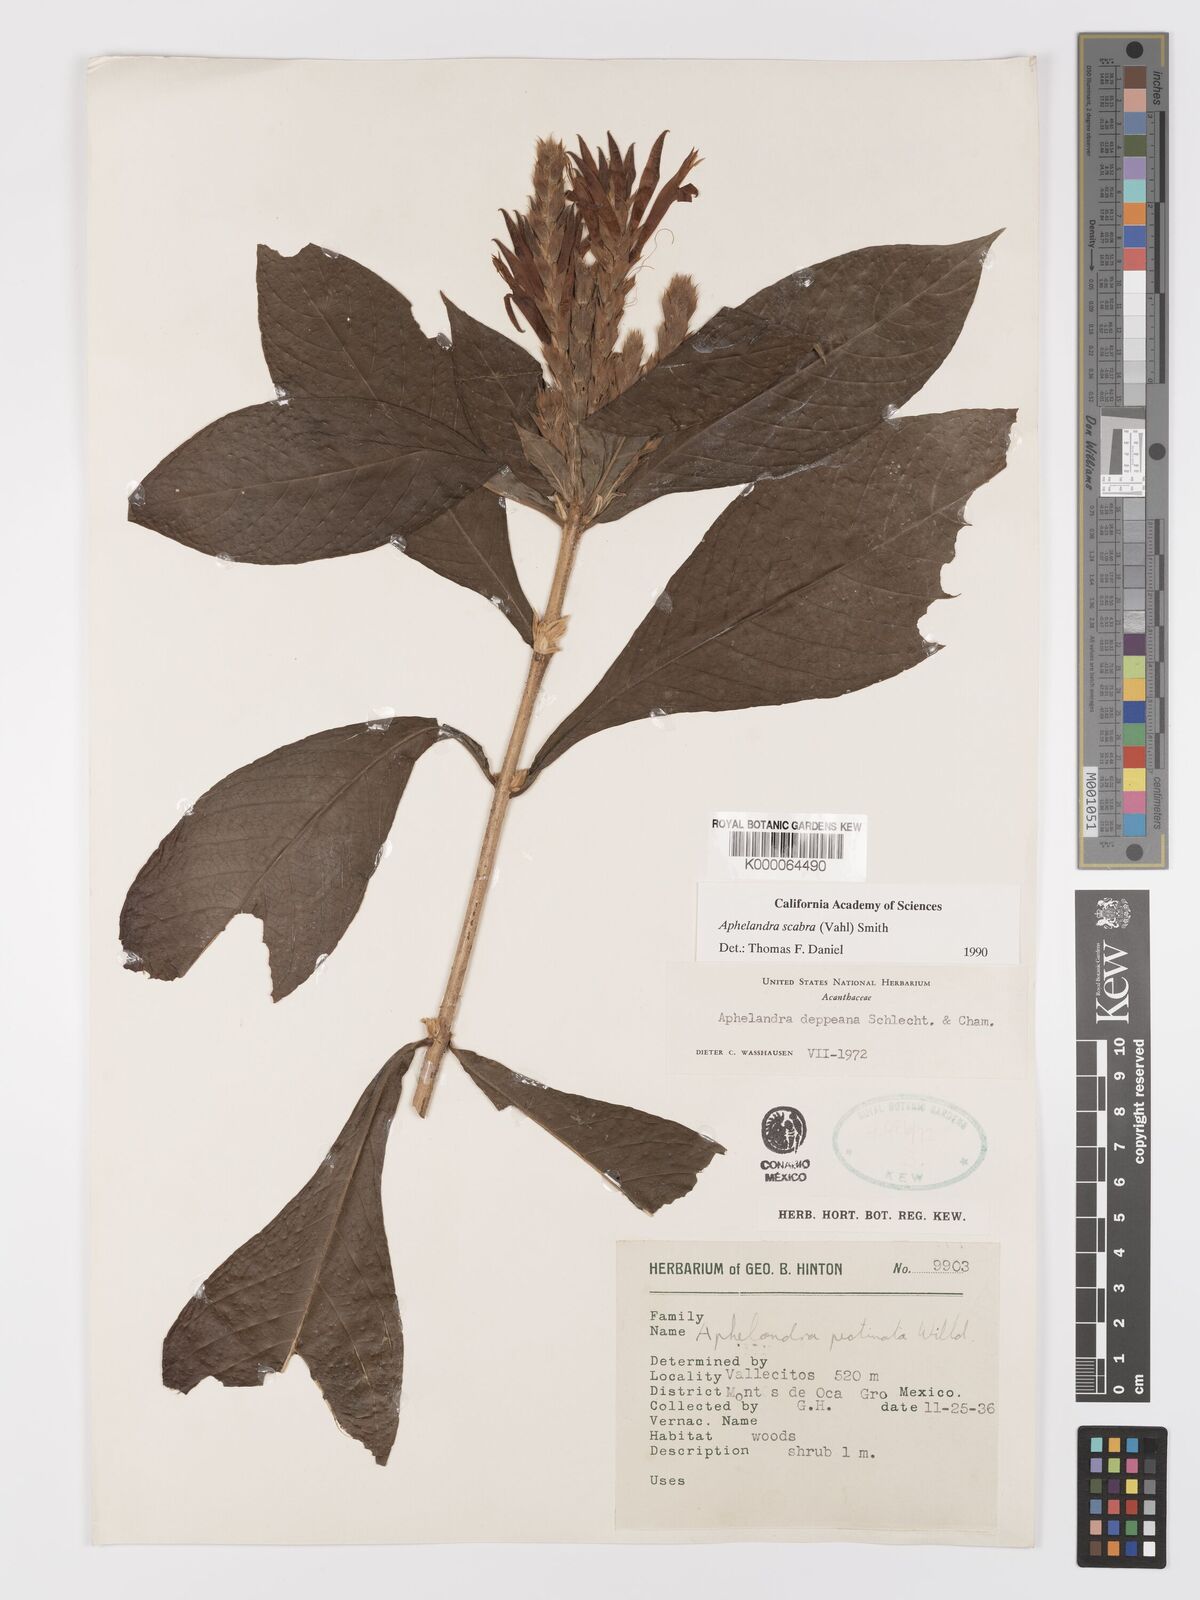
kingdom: Plantae
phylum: Tracheophyta
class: Magnoliopsida
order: Lamiales
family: Acanthaceae
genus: Aphelandra
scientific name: Aphelandra scabra
